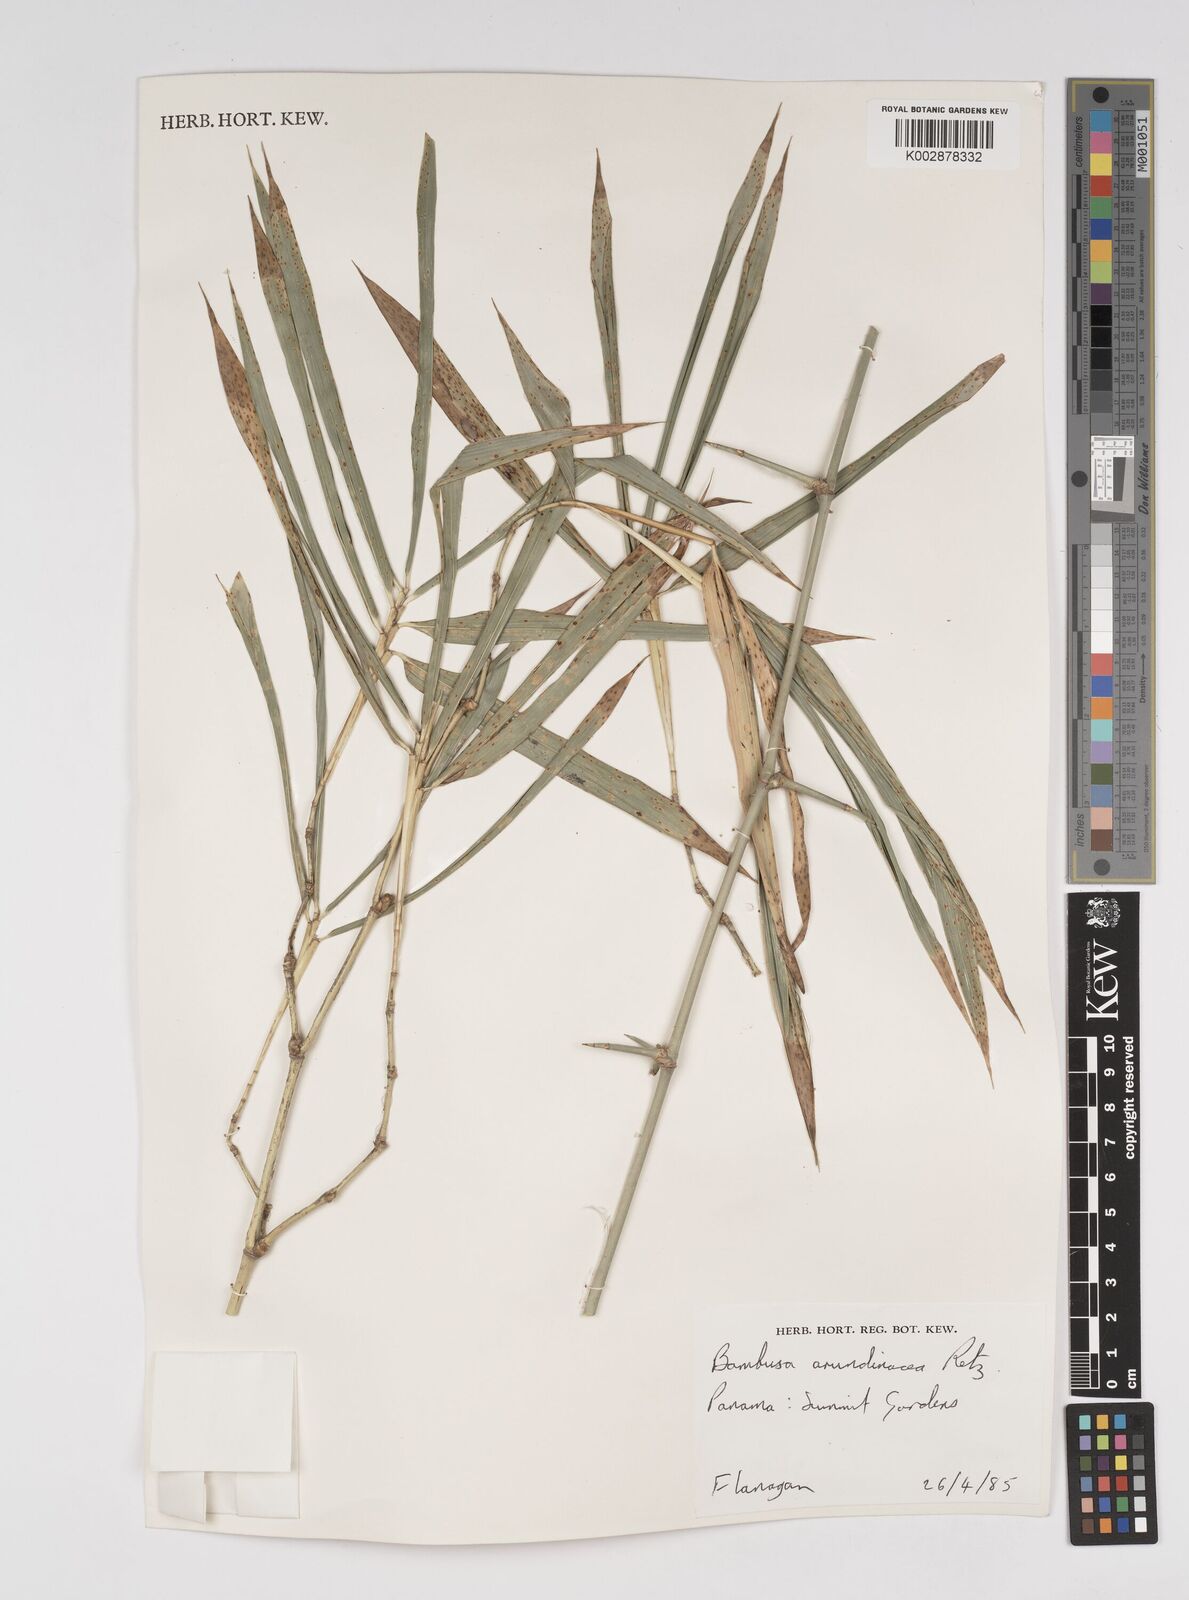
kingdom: Plantae
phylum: Tracheophyta
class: Liliopsida
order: Poales
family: Poaceae
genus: Bambusa
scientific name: Bambusa bambos
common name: Indian thorny bamboo
